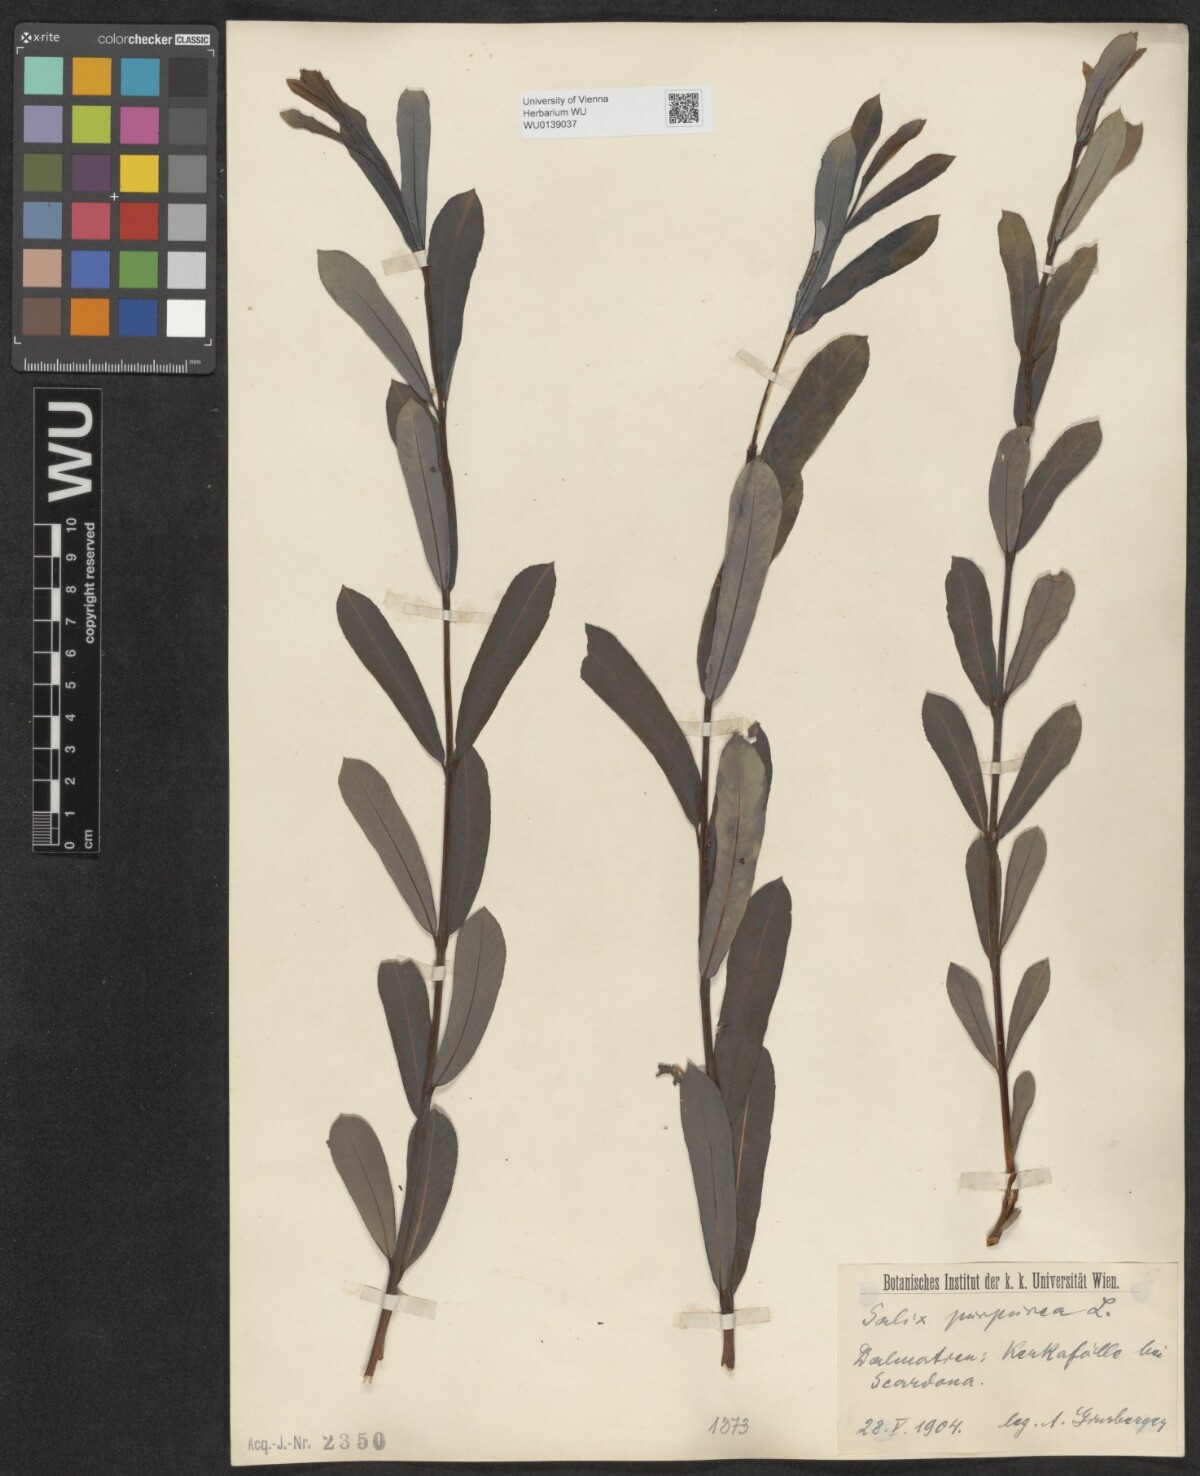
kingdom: Plantae
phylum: Tracheophyta
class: Magnoliopsida
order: Malpighiales
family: Salicaceae
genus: Salix
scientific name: Salix purpurea
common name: Purple willow
